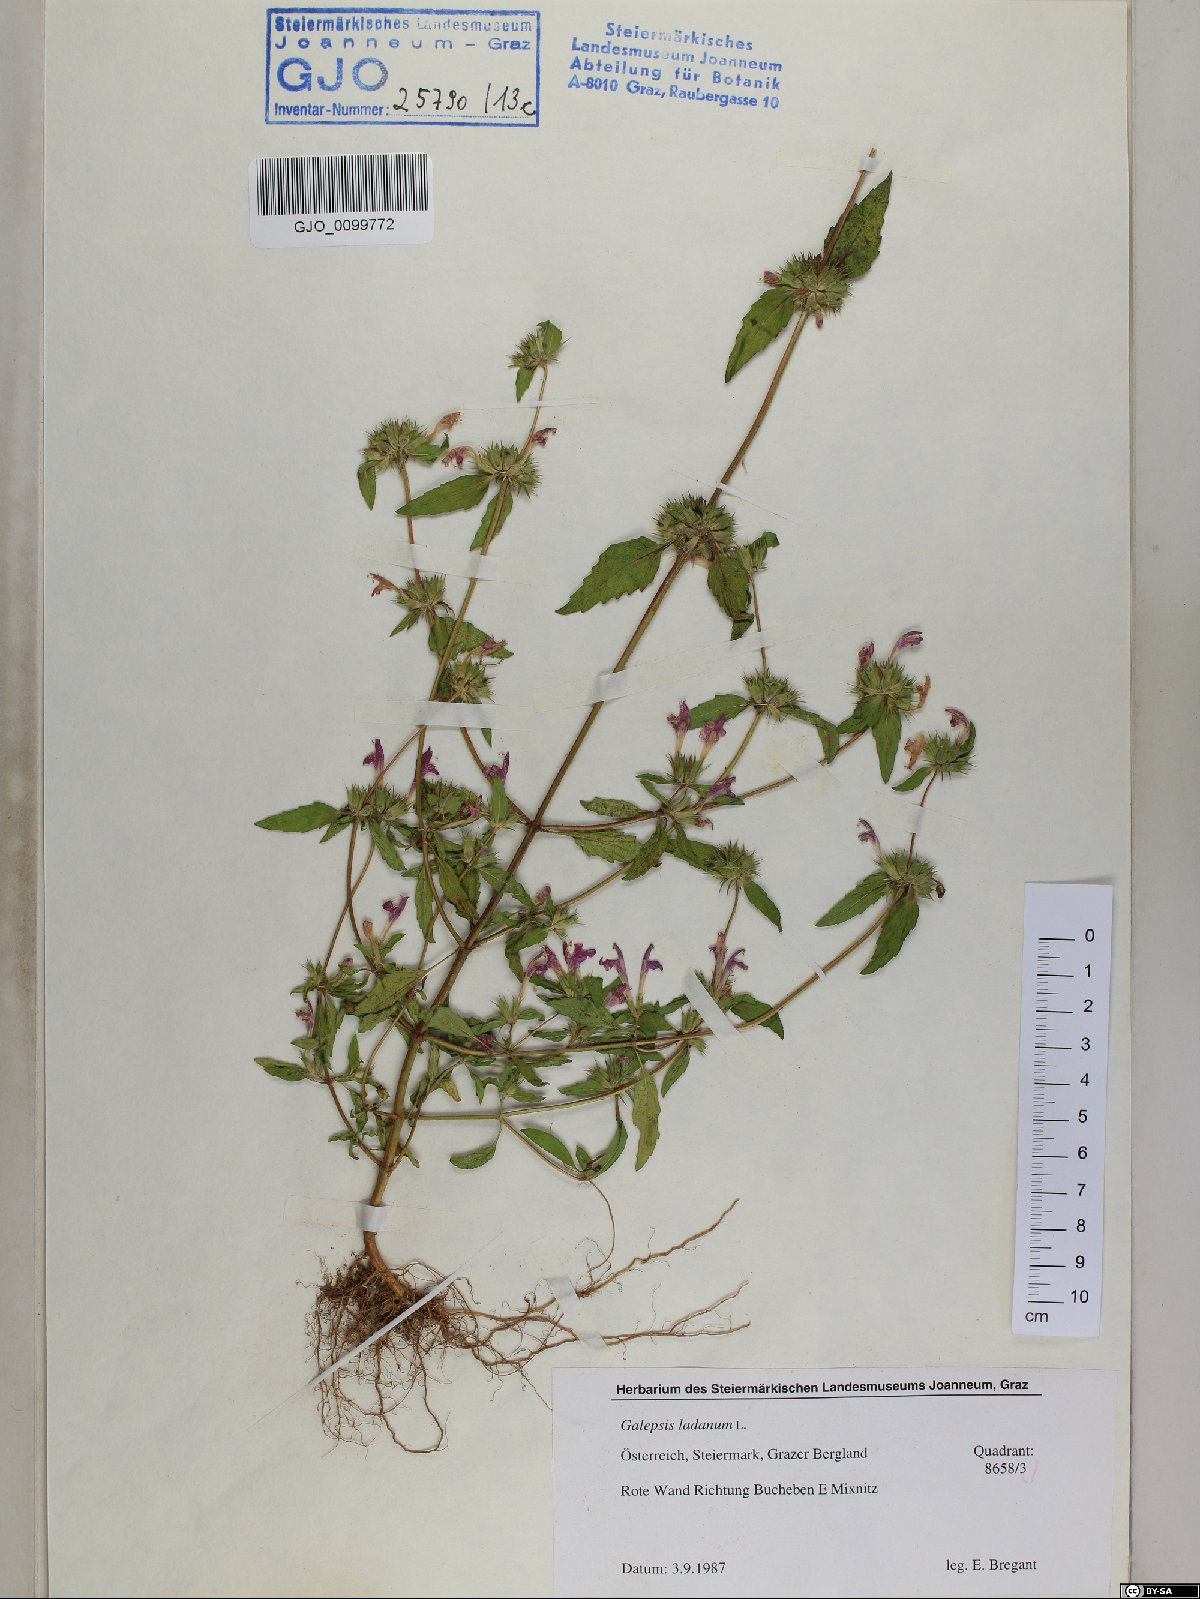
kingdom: Plantae
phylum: Tracheophyta
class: Magnoliopsida
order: Lamiales
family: Lamiaceae
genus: Galeopsis
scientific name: Galeopsis ladanum
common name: Broad-leaved hemp-nettle
